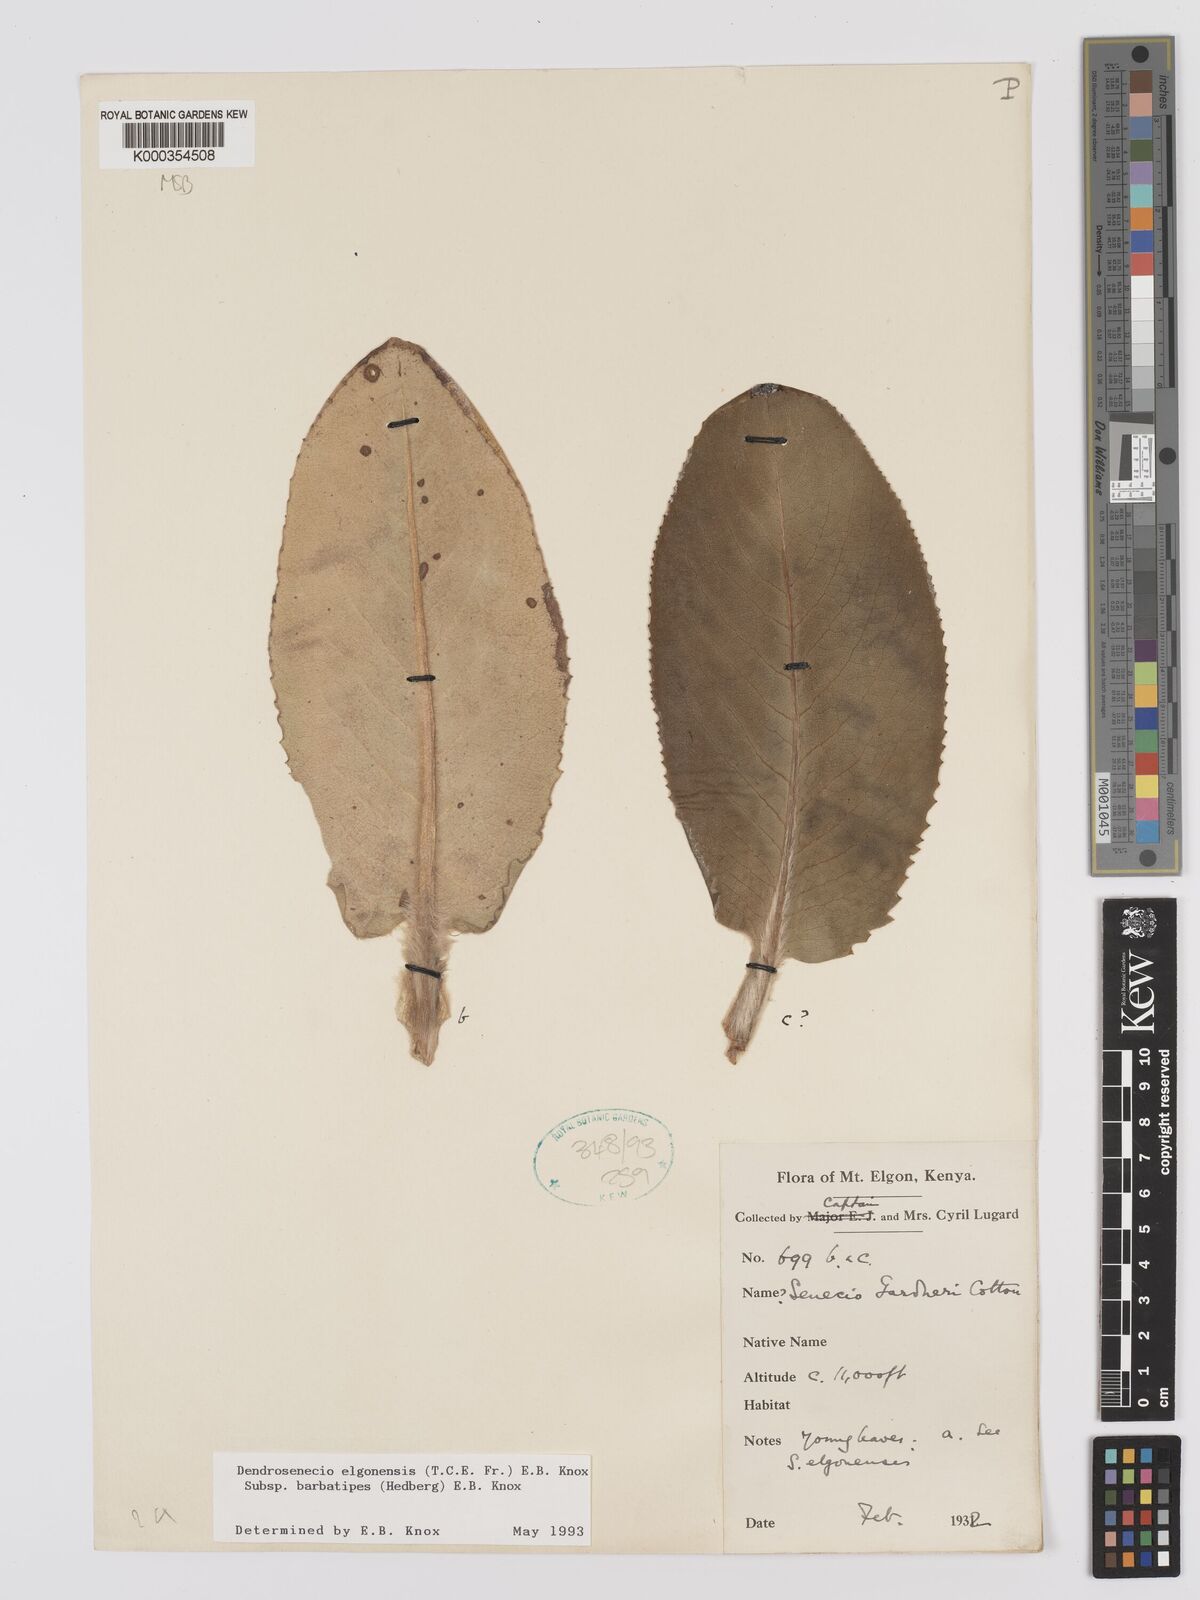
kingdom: Plantae
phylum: Tracheophyta
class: Magnoliopsida
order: Asterales
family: Asteraceae
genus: Dendrosenecio
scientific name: Dendrosenecio elgonensis
